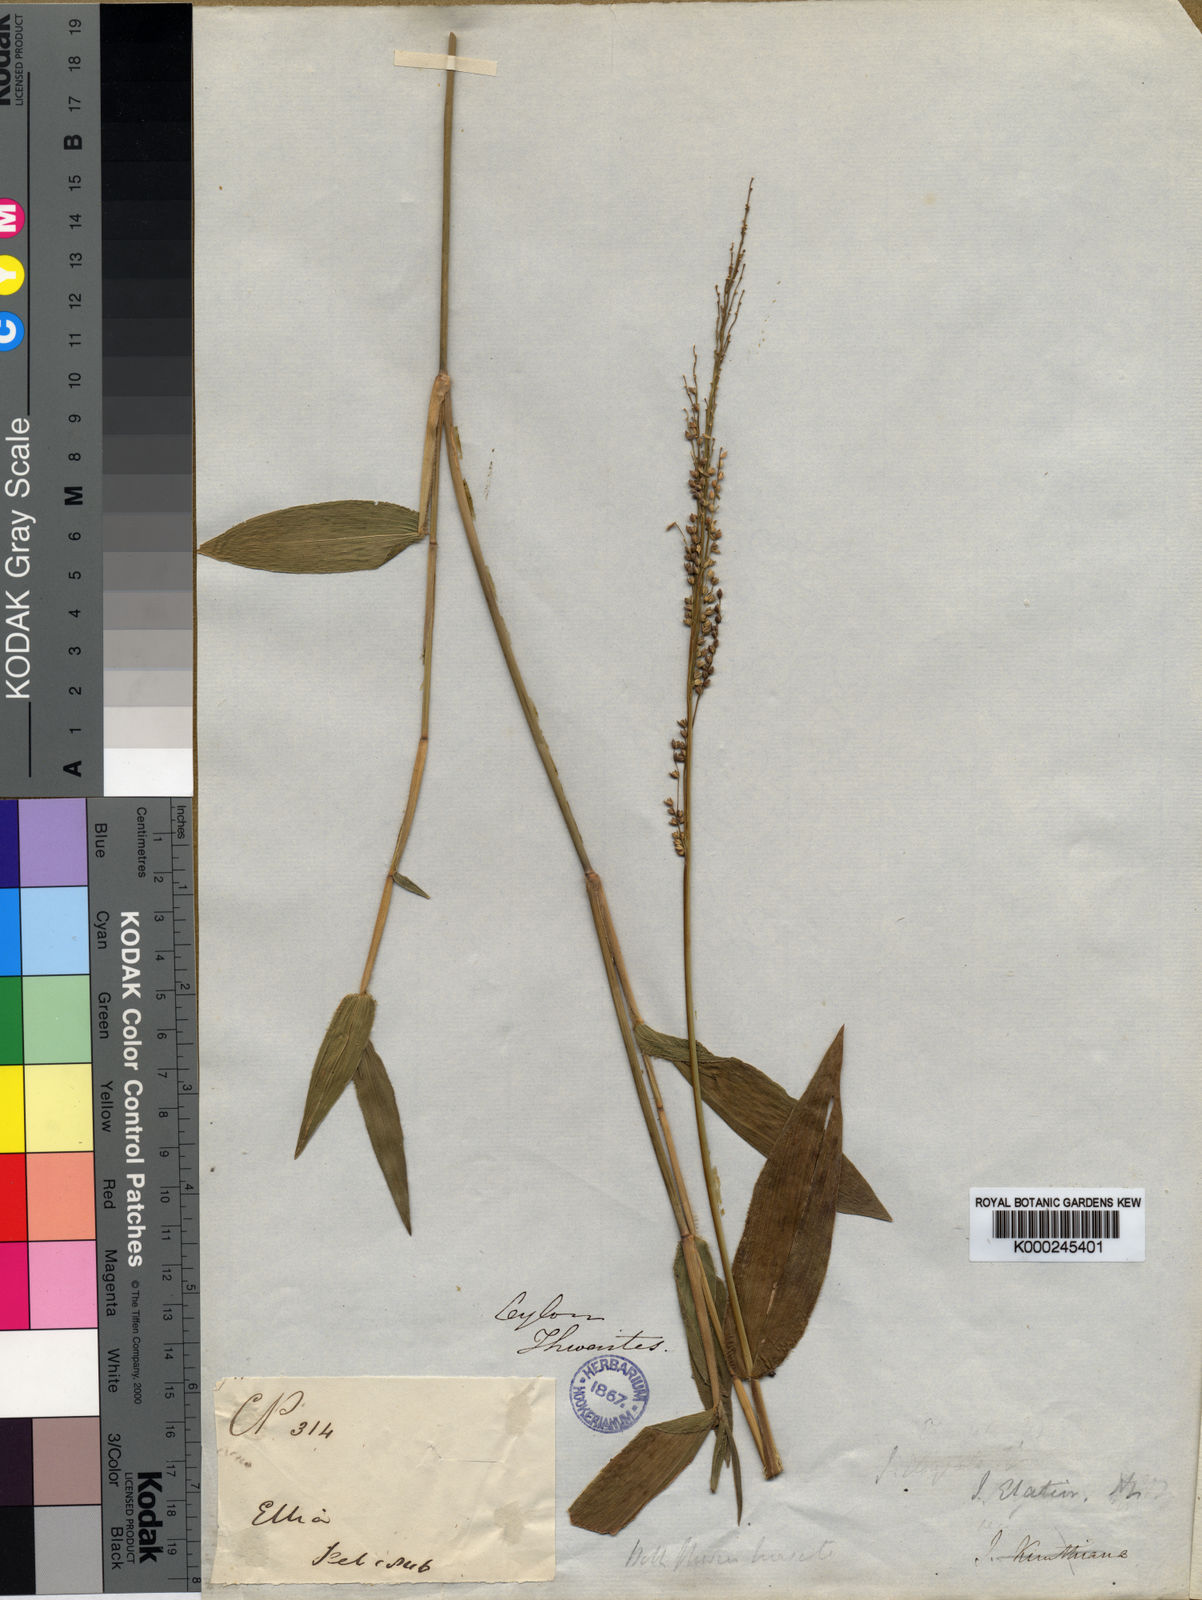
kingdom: Plantae
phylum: Tracheophyta
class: Liliopsida
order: Poales
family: Poaceae
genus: Isachne
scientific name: Isachne kunthiana
